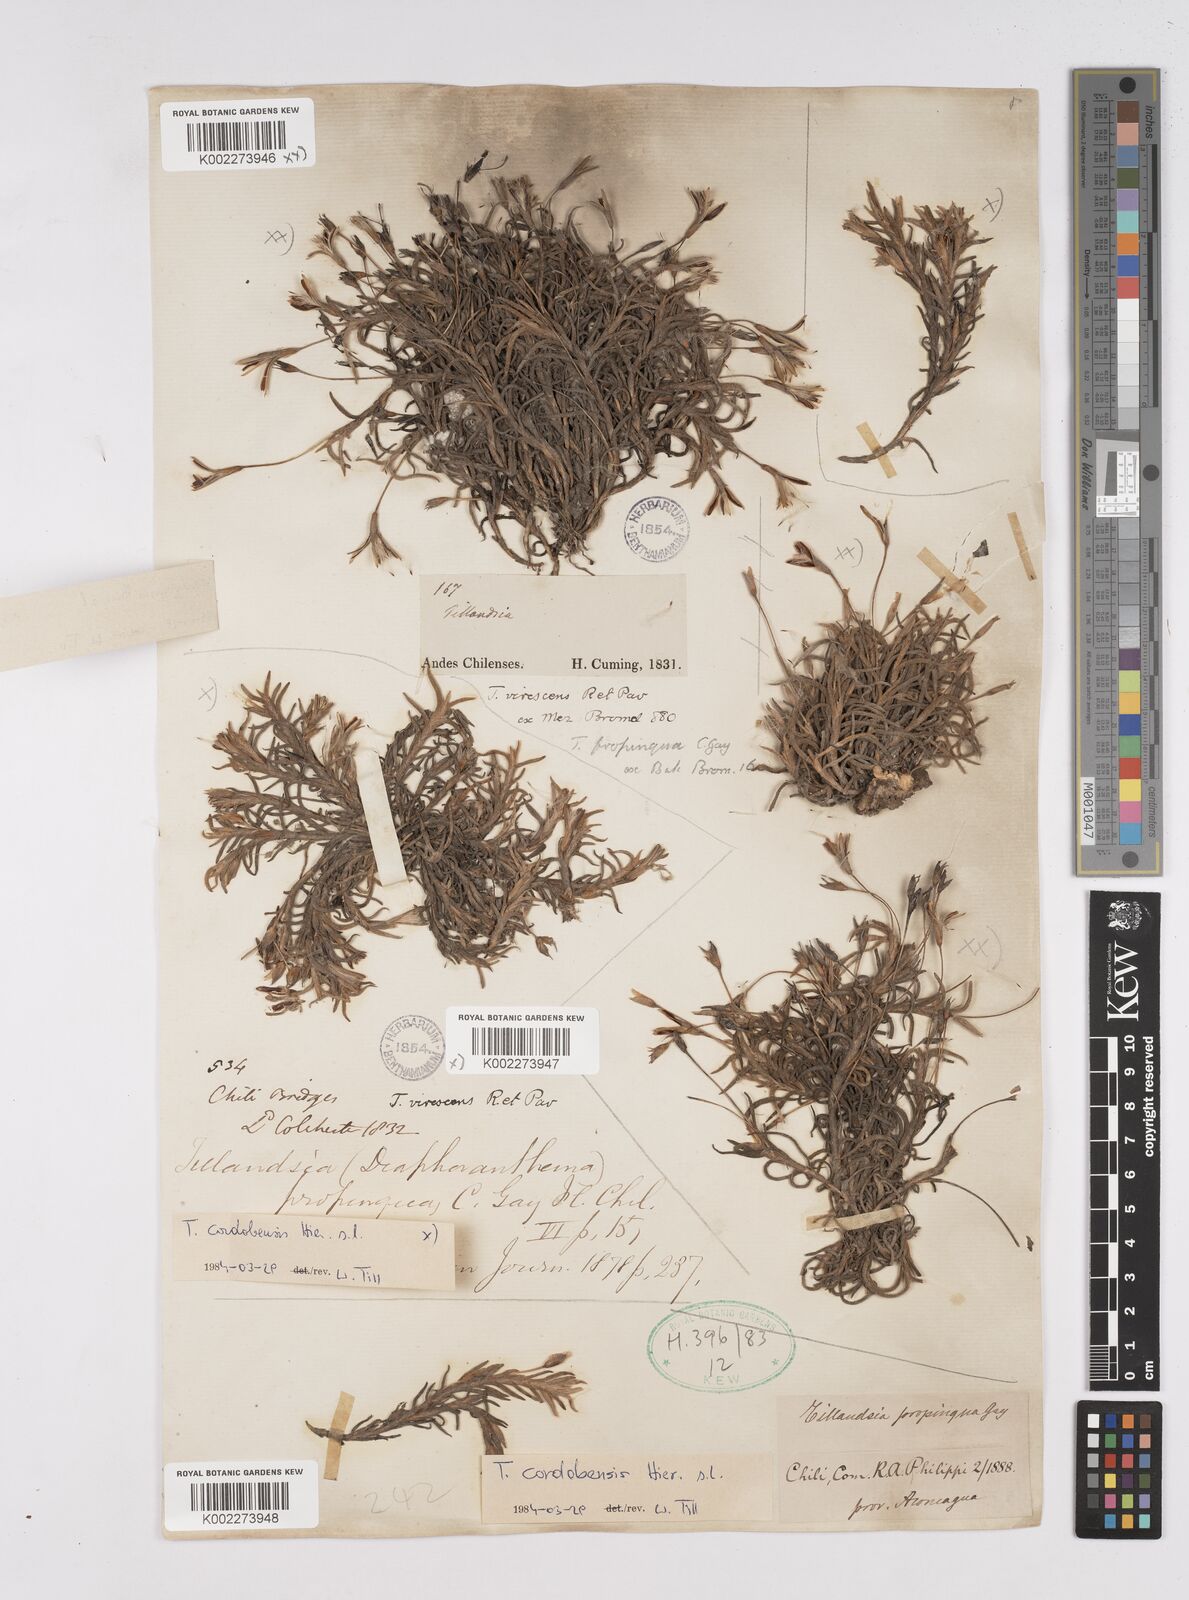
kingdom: Plantae
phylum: Tracheophyta
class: Liliopsida
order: Poales
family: Bromeliaceae
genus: Tillandsia
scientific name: Tillandsia virescens
